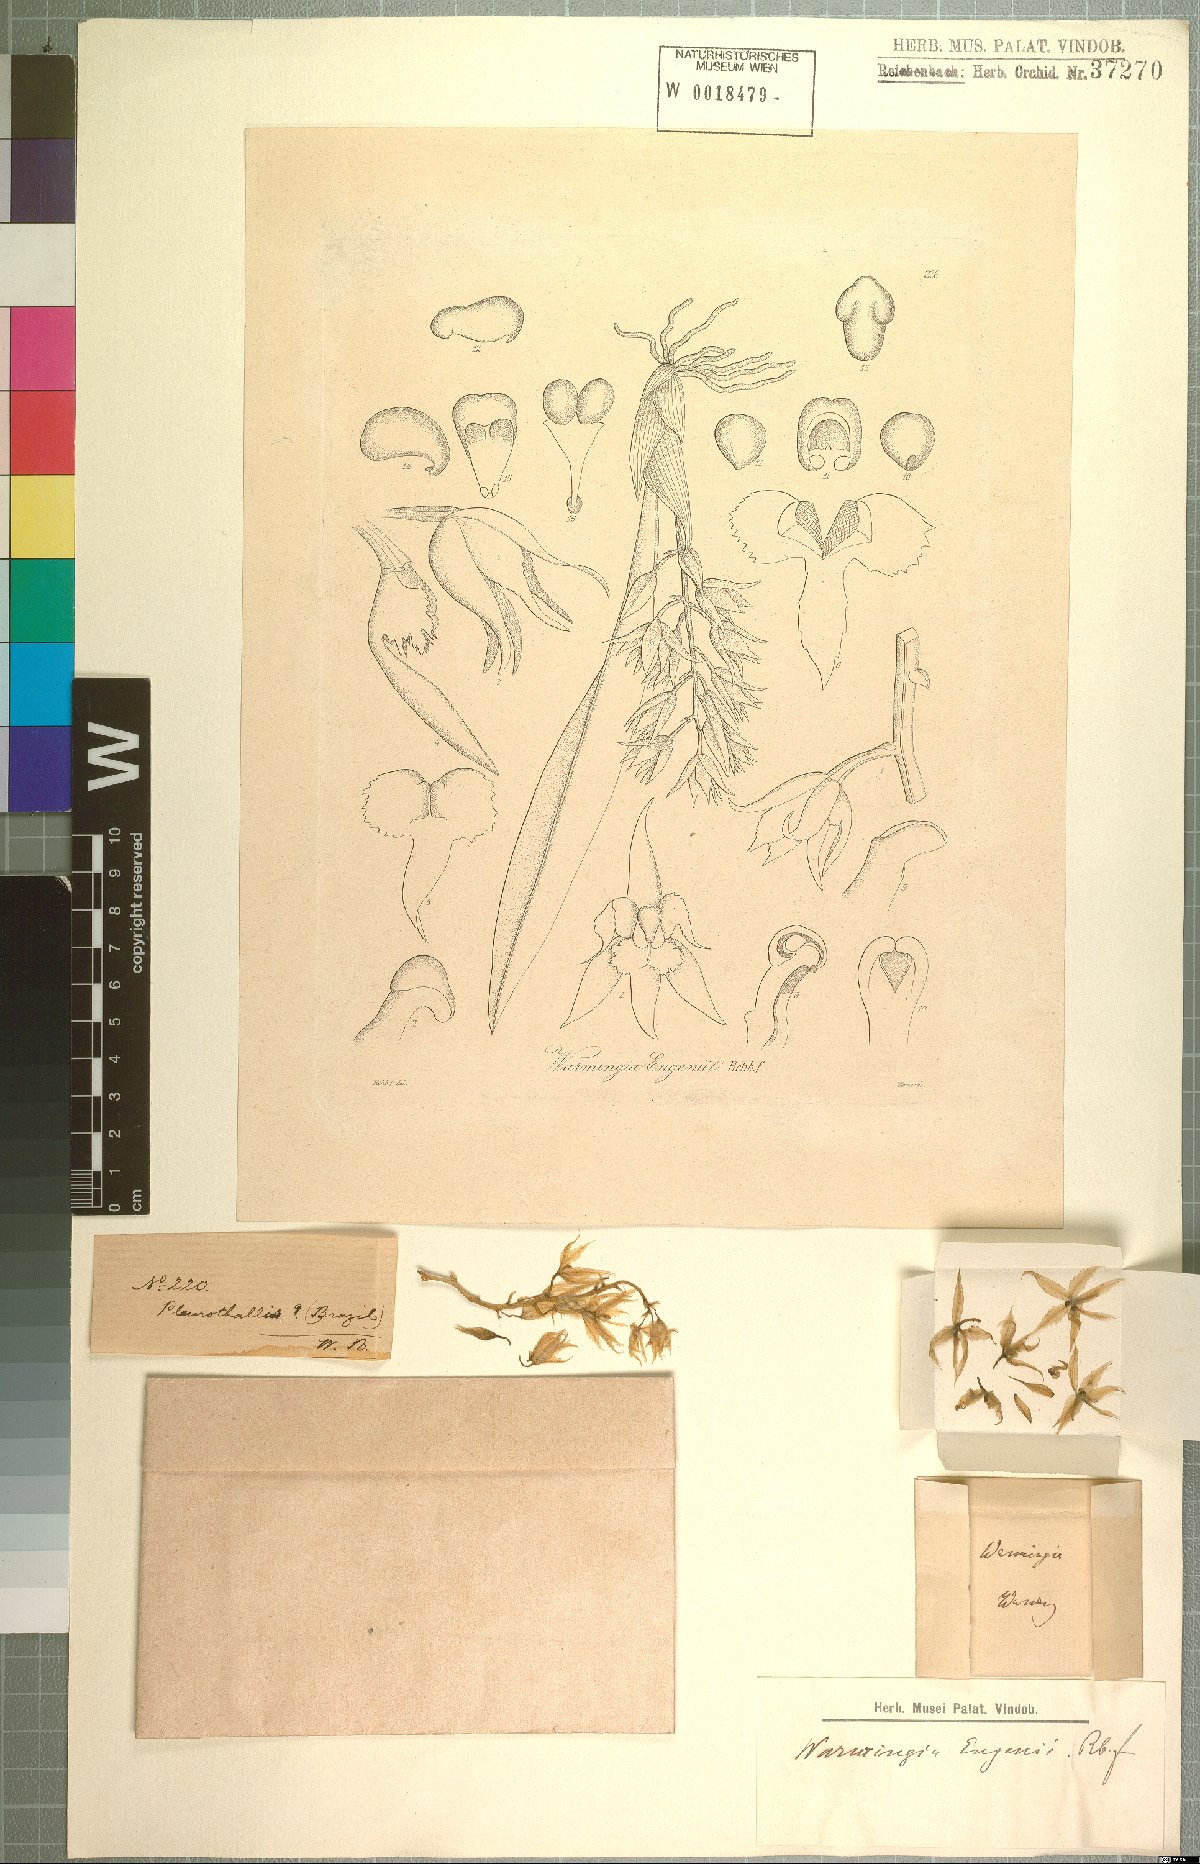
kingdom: Plantae
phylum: Tracheophyta
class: Liliopsida
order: Asparagales
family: Orchidaceae
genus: Warmingia
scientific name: Warmingia eugenii
